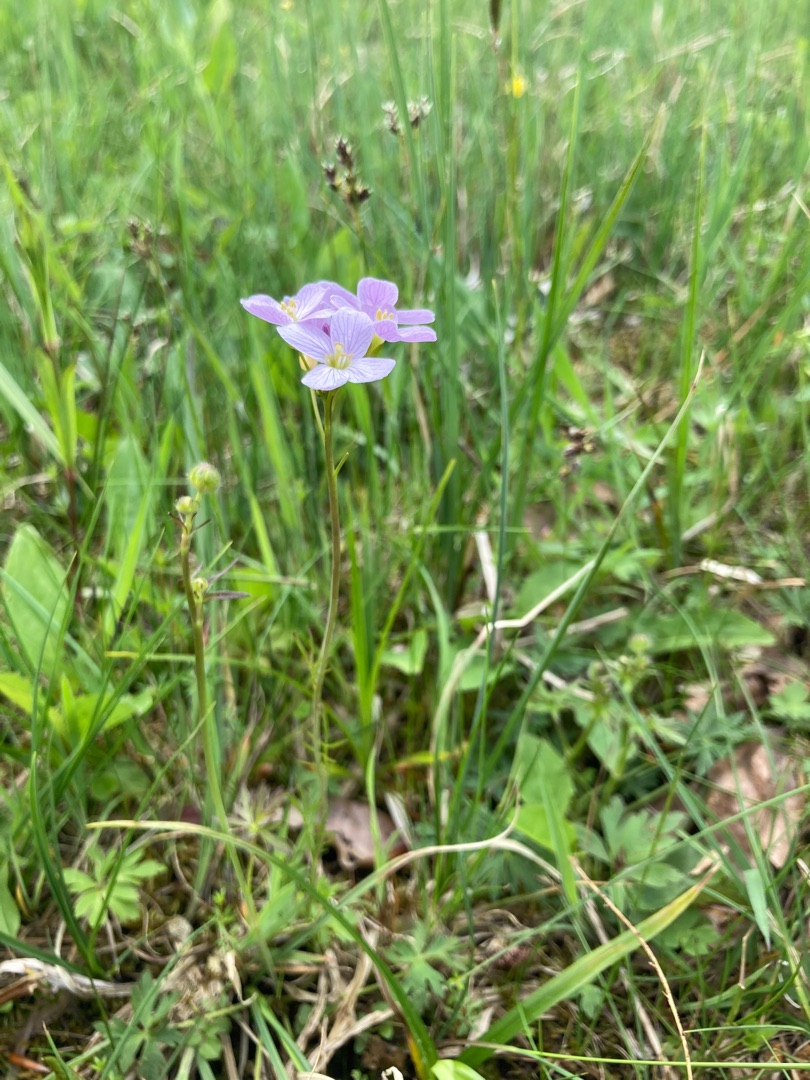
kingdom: Plantae
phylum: Tracheophyta
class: Magnoliopsida
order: Brassicales
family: Brassicaceae
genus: Cardamine
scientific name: Cardamine pratensis
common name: Engkarse
